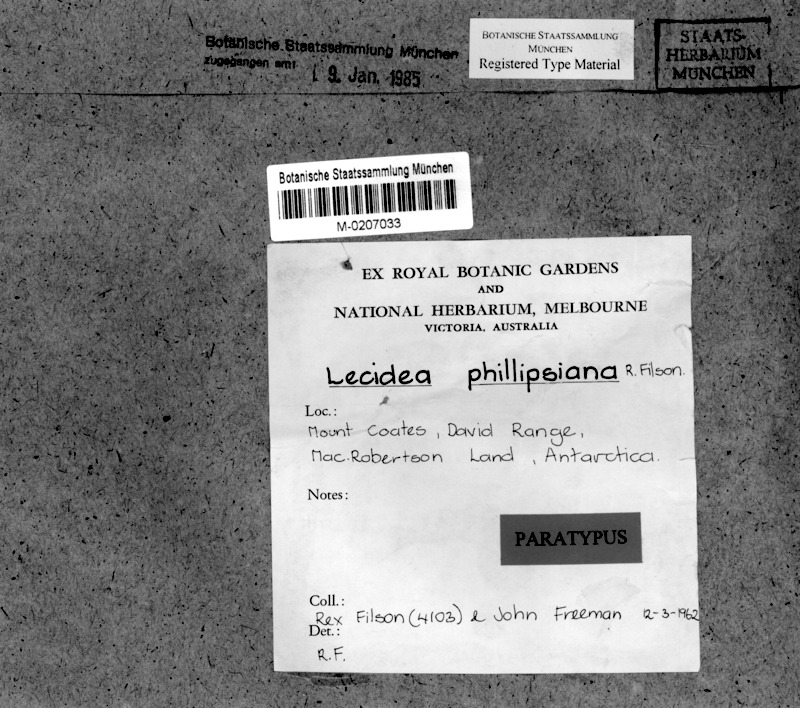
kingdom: Fungi
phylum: Ascomycota
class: Lecanoromycetes
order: Lecideales
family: Lecideaceae
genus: Lecidea
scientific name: Lecidea cancriformis
